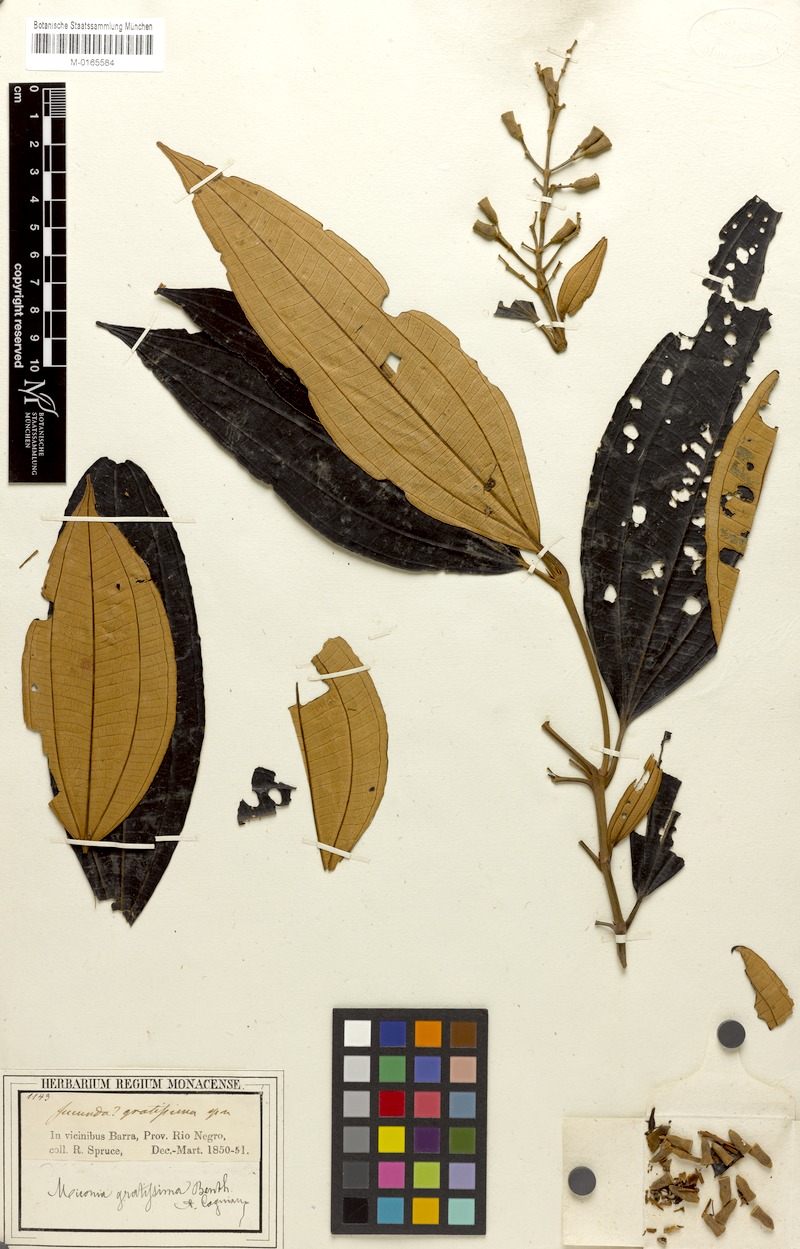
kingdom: Plantae
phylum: Tracheophyta
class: Magnoliopsida
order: Myrtales
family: Melastomataceae
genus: Miconia
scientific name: Miconia gratissima
